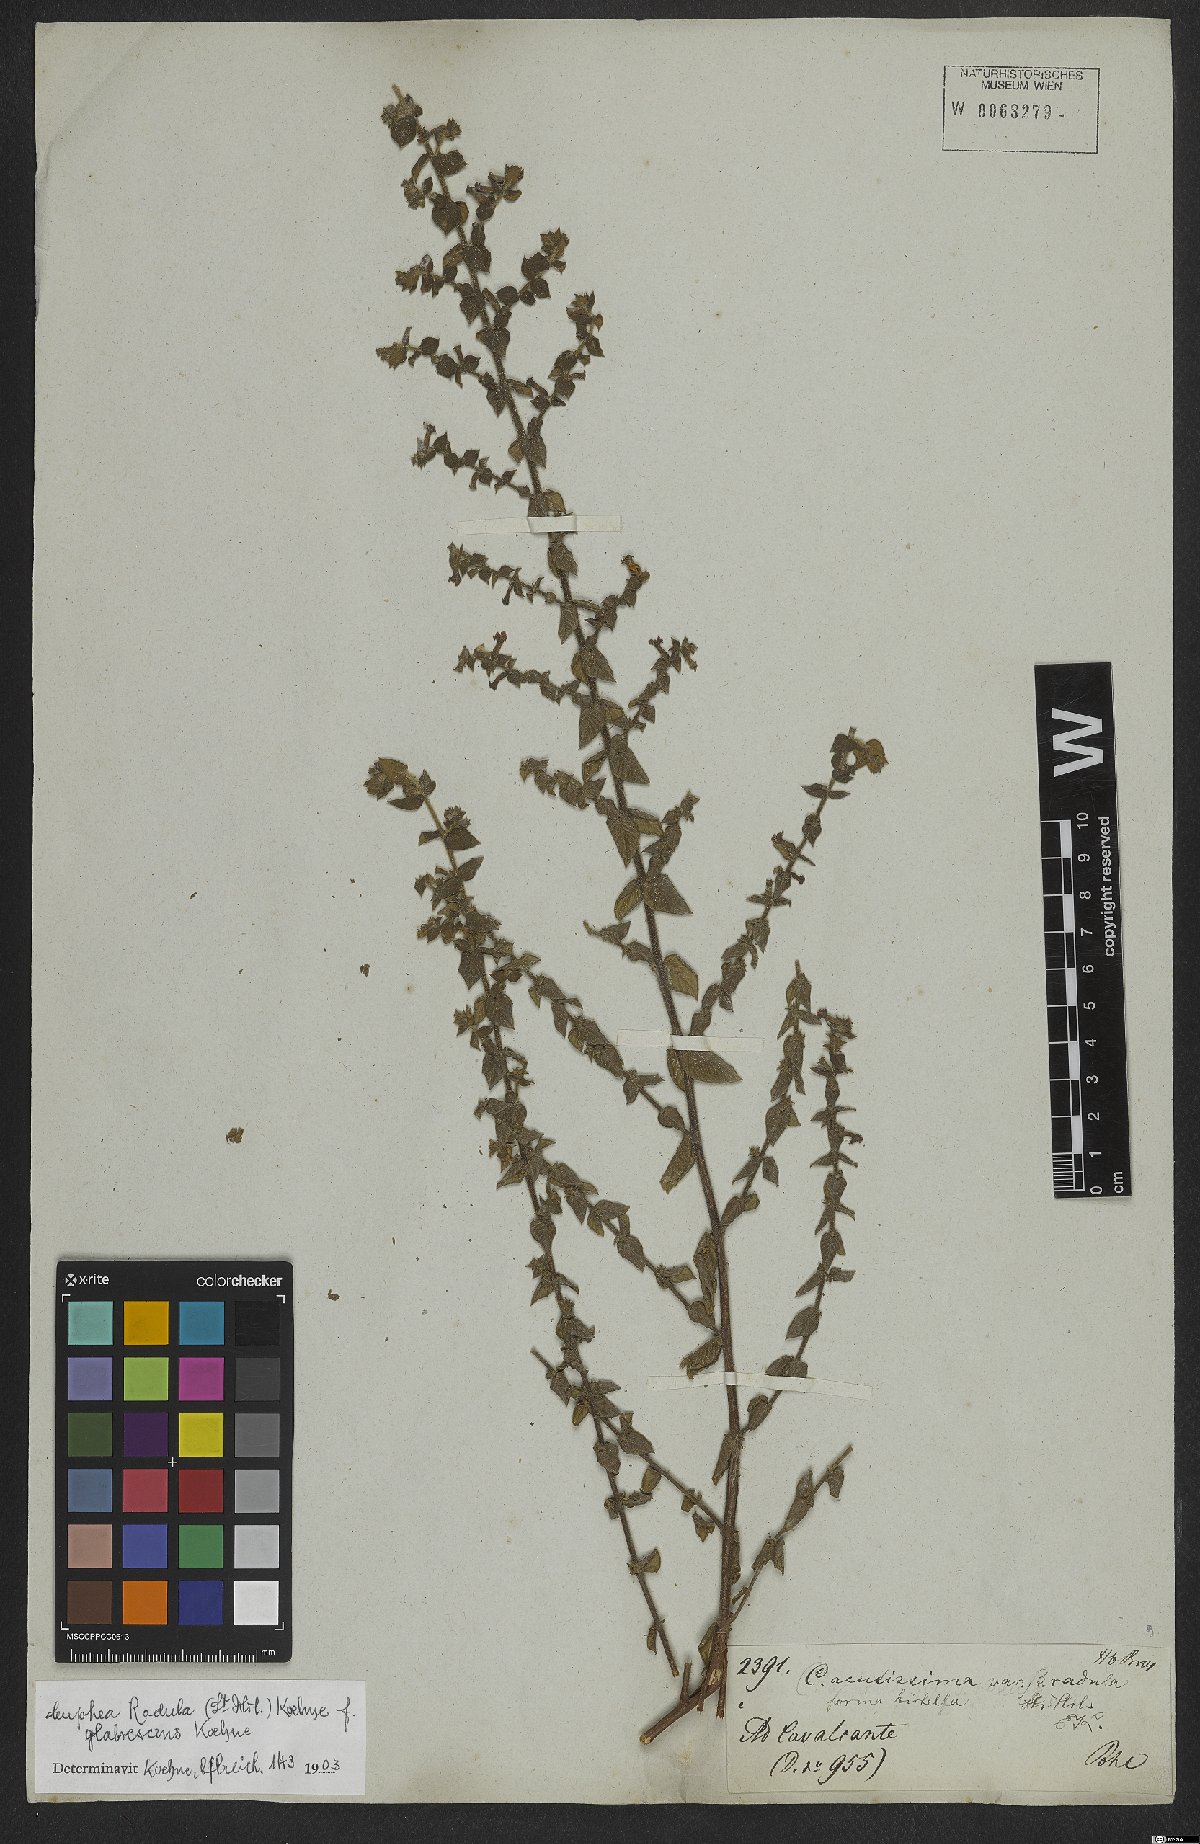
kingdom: Plantae
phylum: Tracheophyta
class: Magnoliopsida
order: Myrtales
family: Lythraceae
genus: Cuphea
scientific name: Cuphea antisyphilitica
